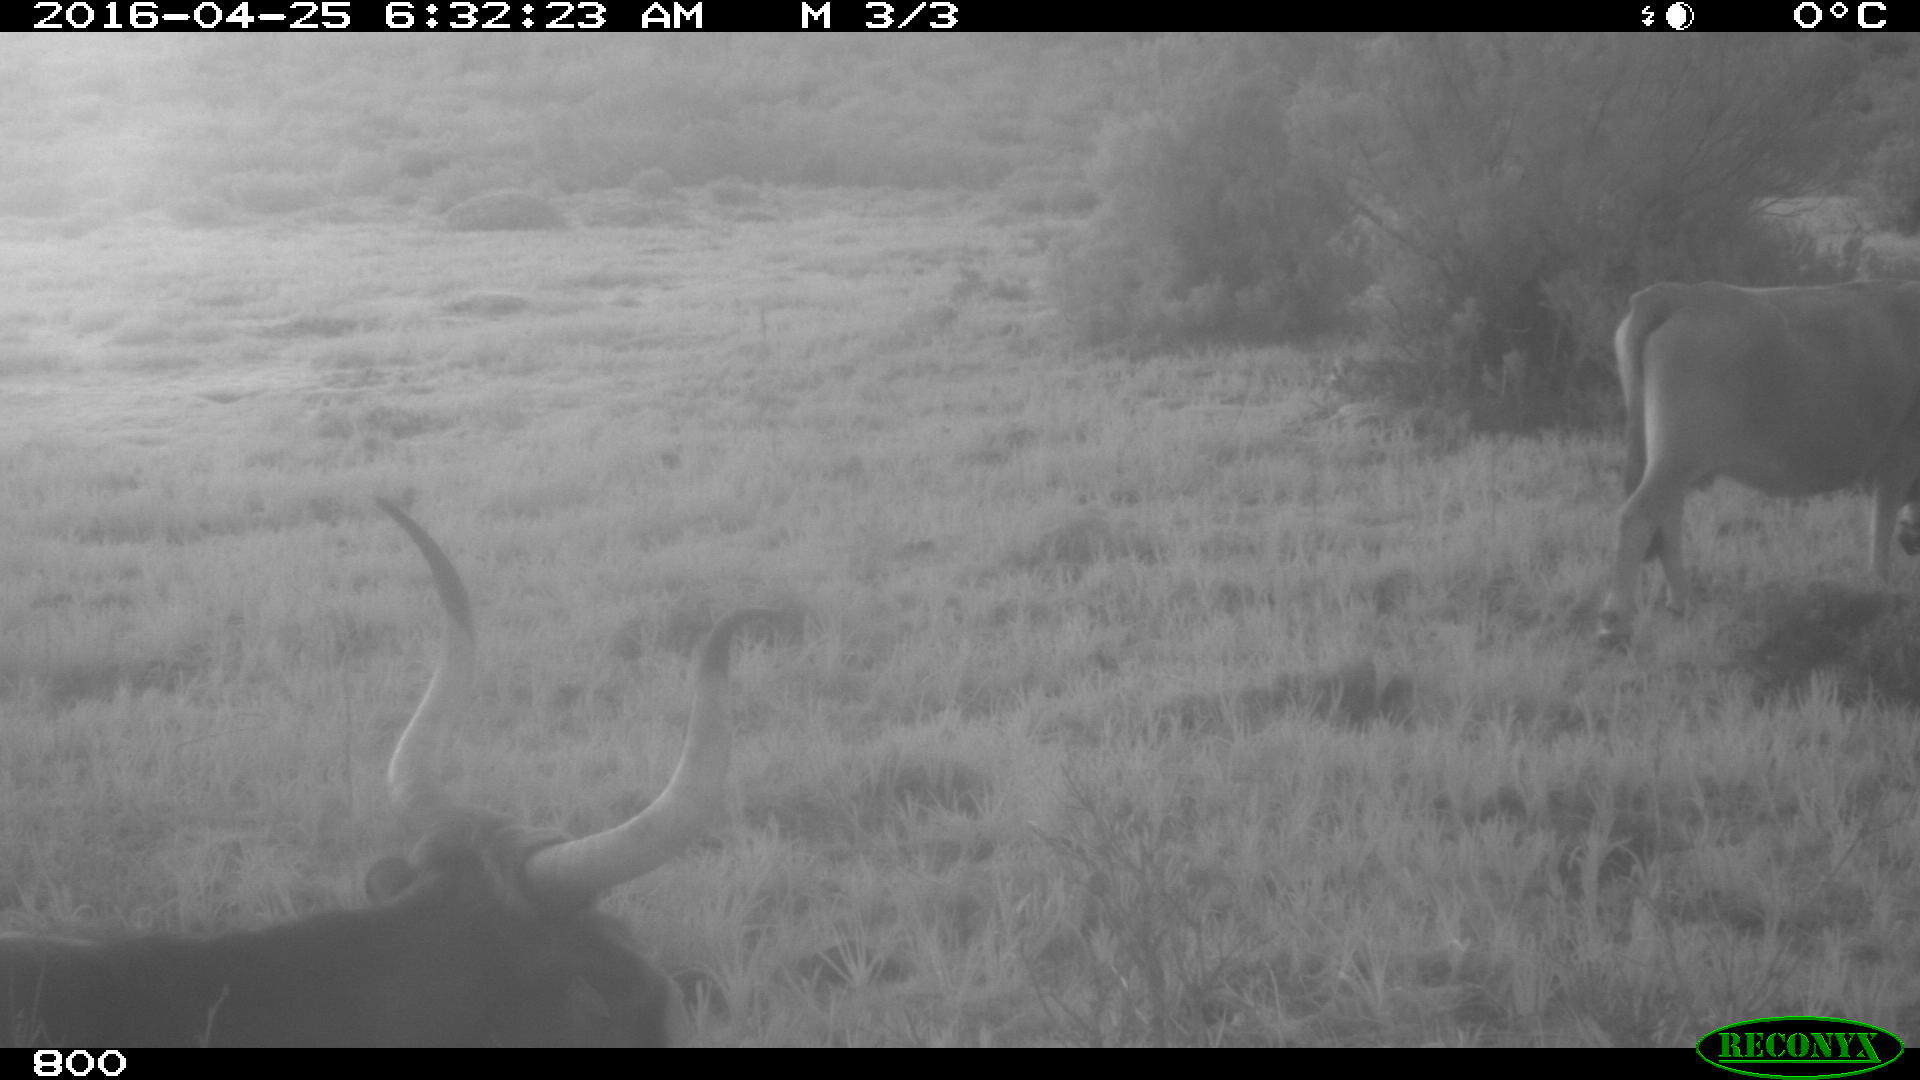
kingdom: Animalia
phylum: Chordata
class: Mammalia
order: Artiodactyla
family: Bovidae
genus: Bos
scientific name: Bos taurus
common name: Domesticated cattle
